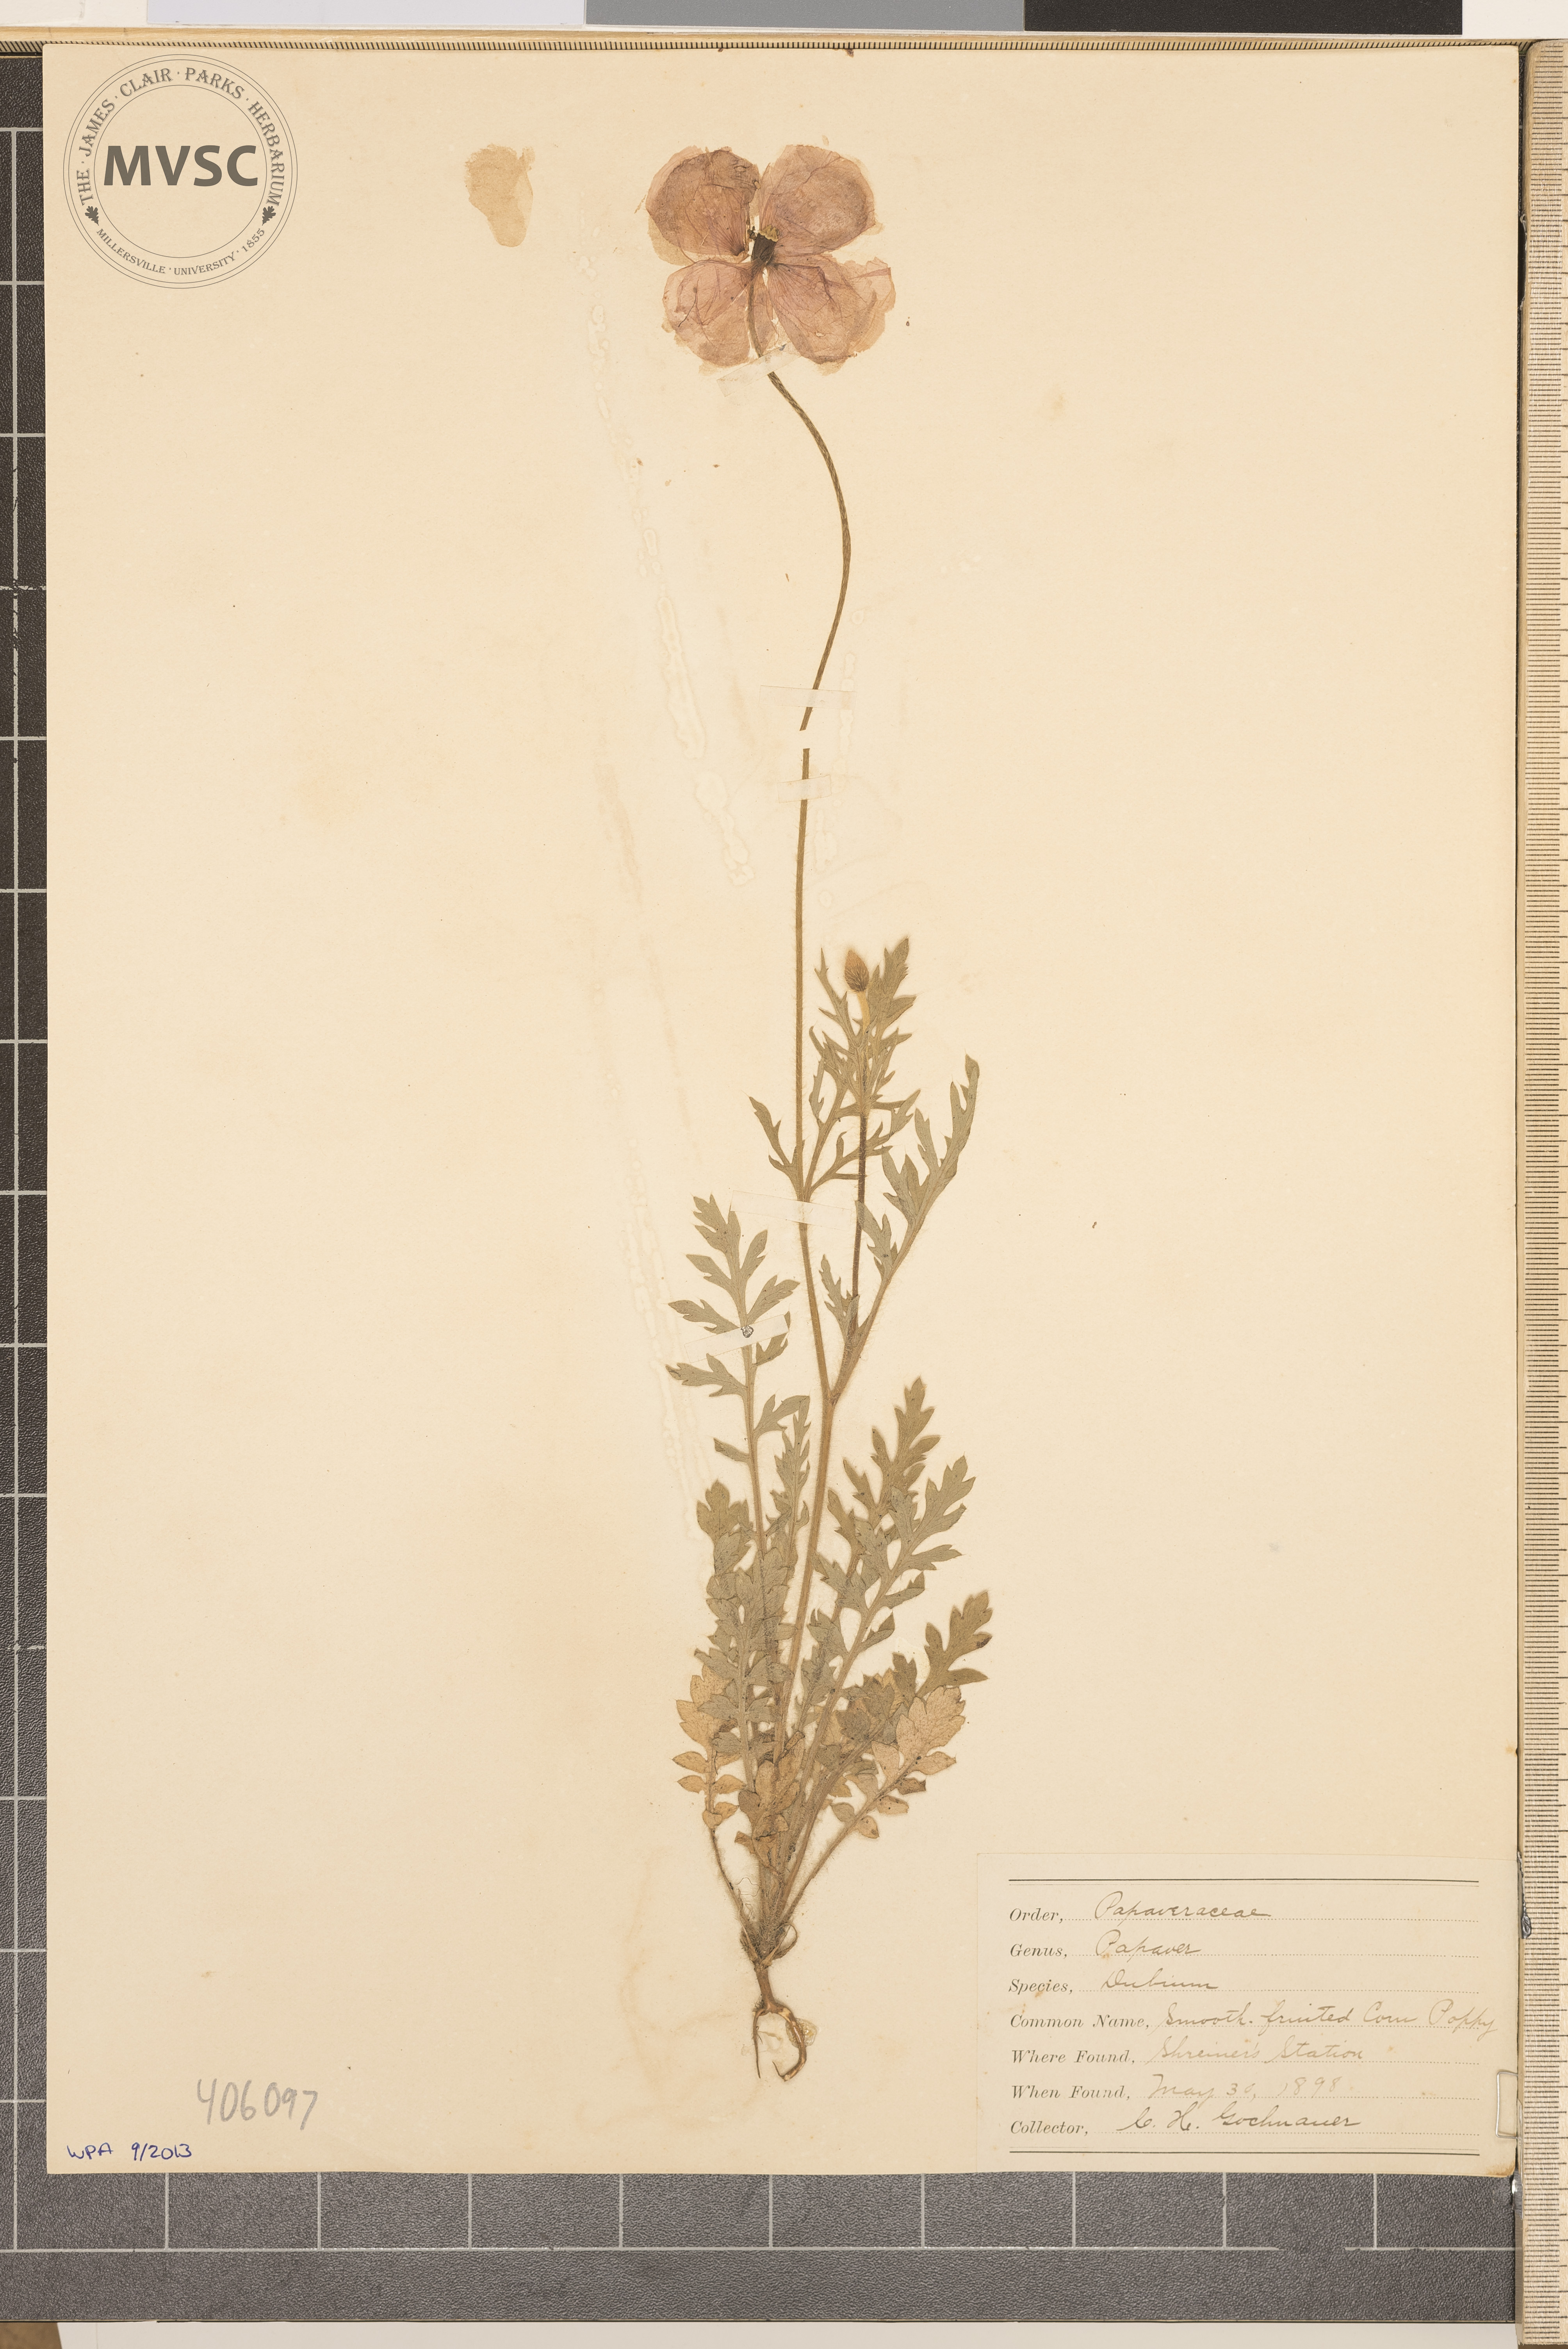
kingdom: Plantae
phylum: Tracheophyta
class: Magnoliopsida
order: Ranunculales
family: Papaveraceae
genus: Papaver
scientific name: Papaver dubium
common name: Long-headed poppy
